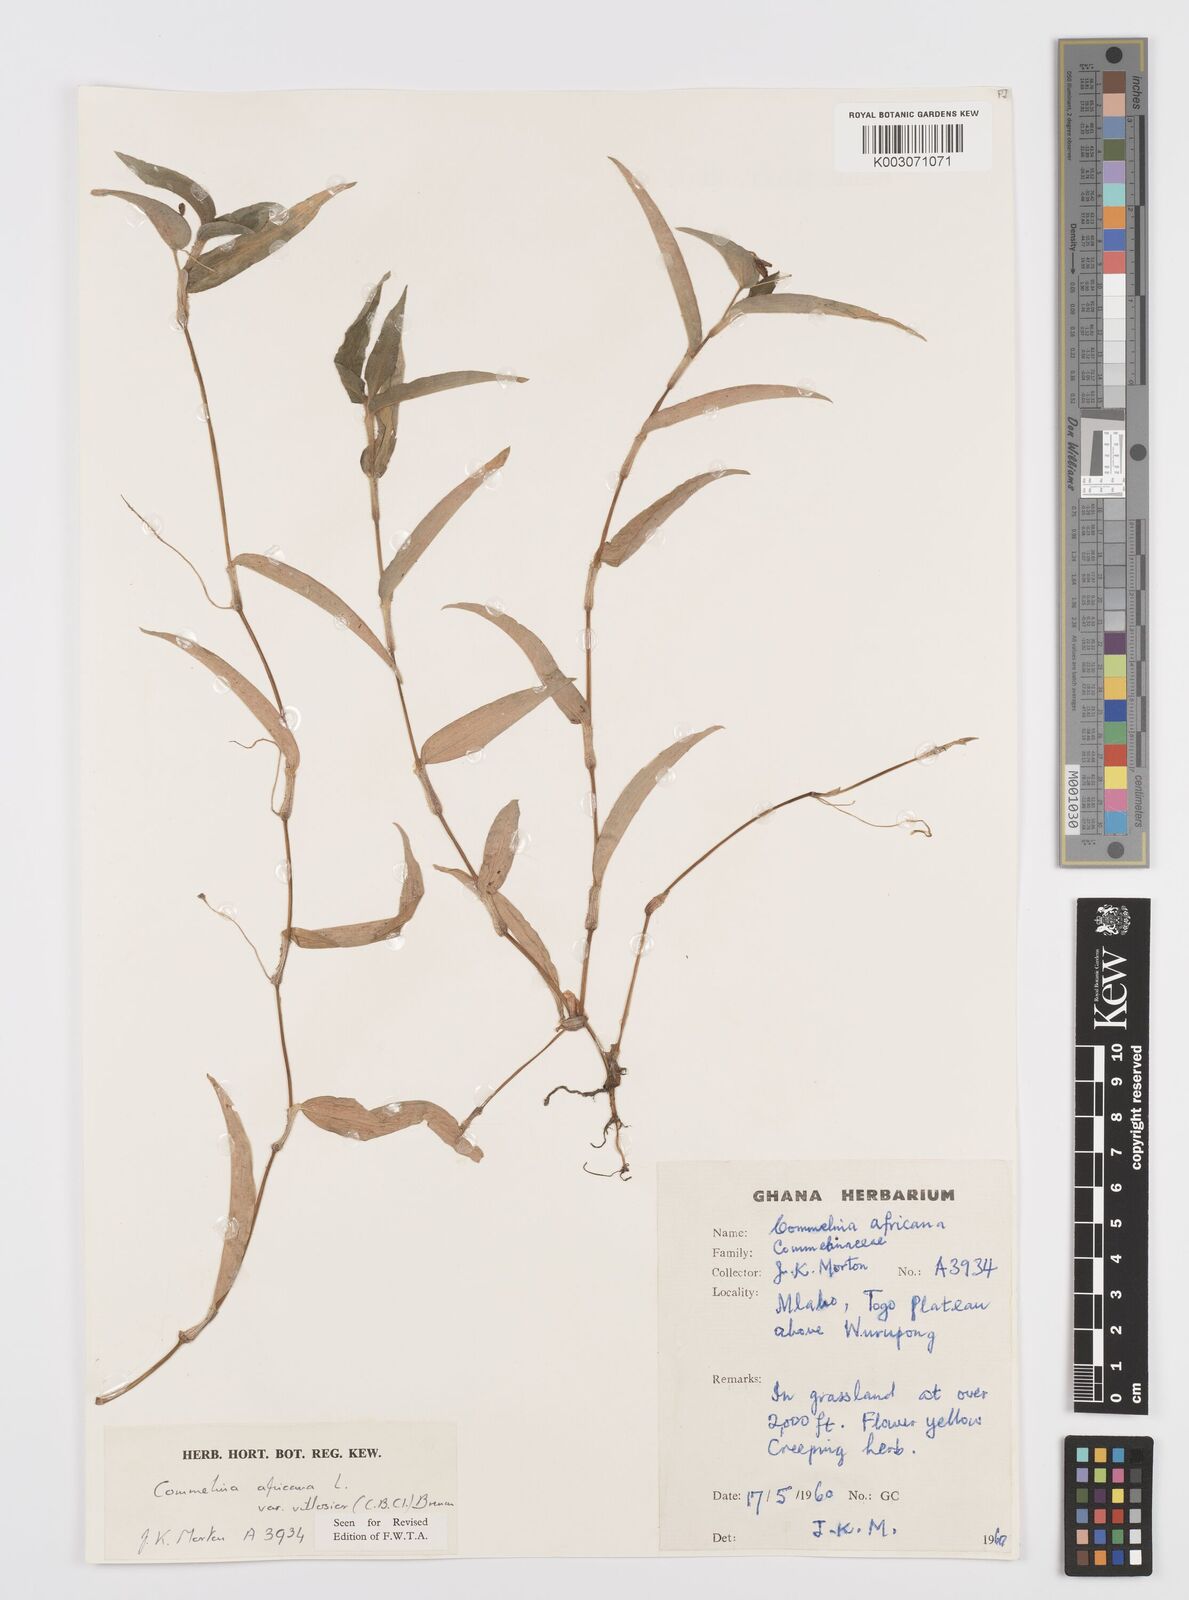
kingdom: Plantae
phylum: Tracheophyta
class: Liliopsida
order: Commelinales
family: Commelinaceae
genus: Commelina
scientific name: Commelina africana
